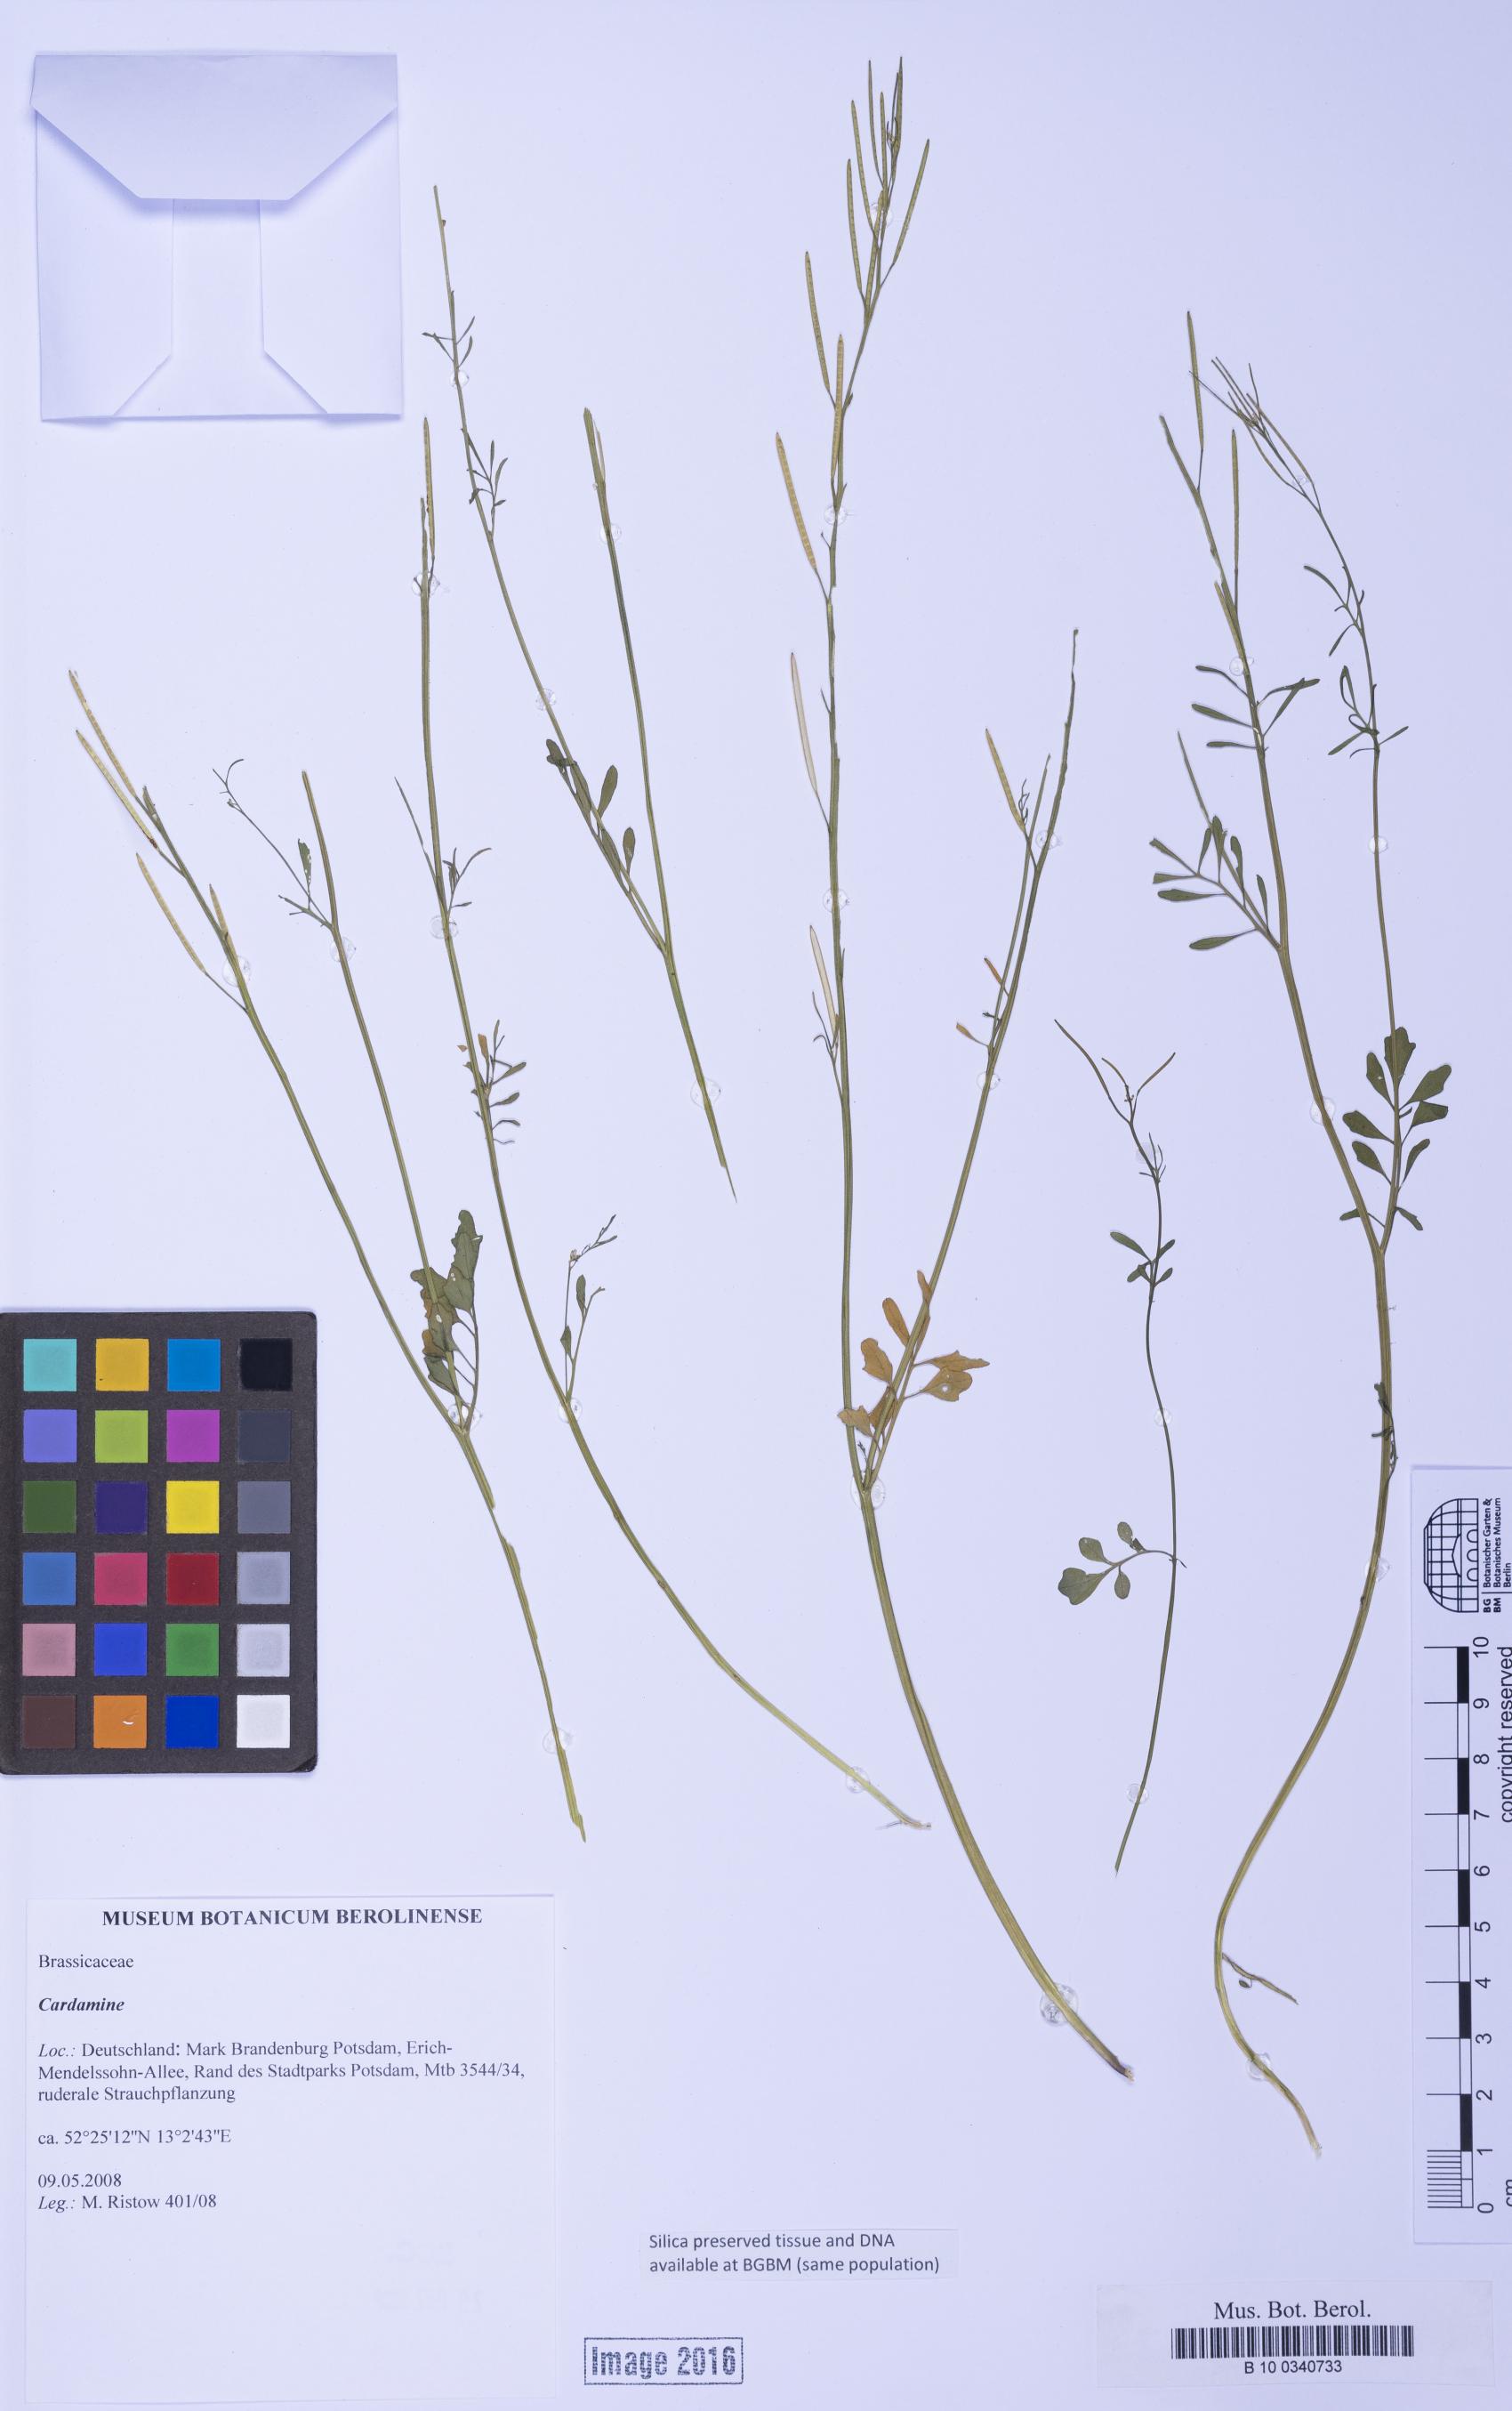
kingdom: Plantae
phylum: Tracheophyta
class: Magnoliopsida
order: Brassicales
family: Brassicaceae
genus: Cardamine
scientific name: Cardamine
